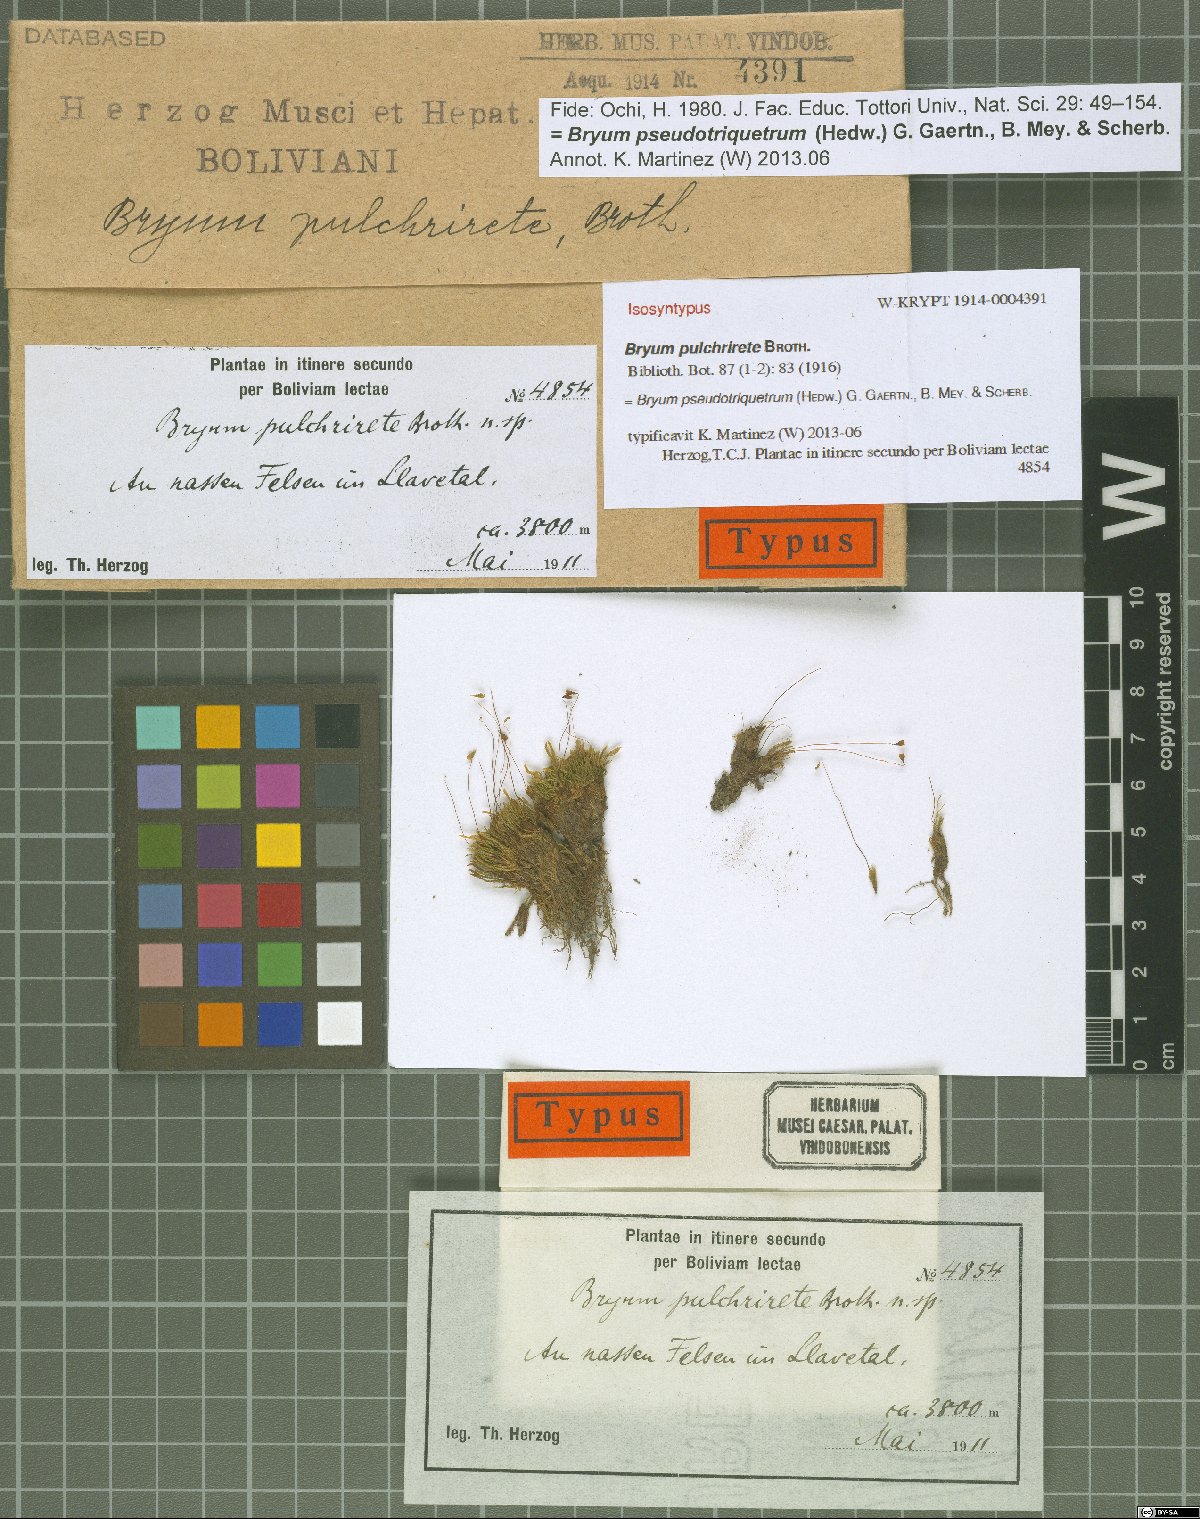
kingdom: Plantae
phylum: Bryophyta
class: Bryopsida
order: Bryales
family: Bryaceae
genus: Ptychostomum
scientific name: Ptychostomum pseudotriquetrum
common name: Long-leaved thread moss
